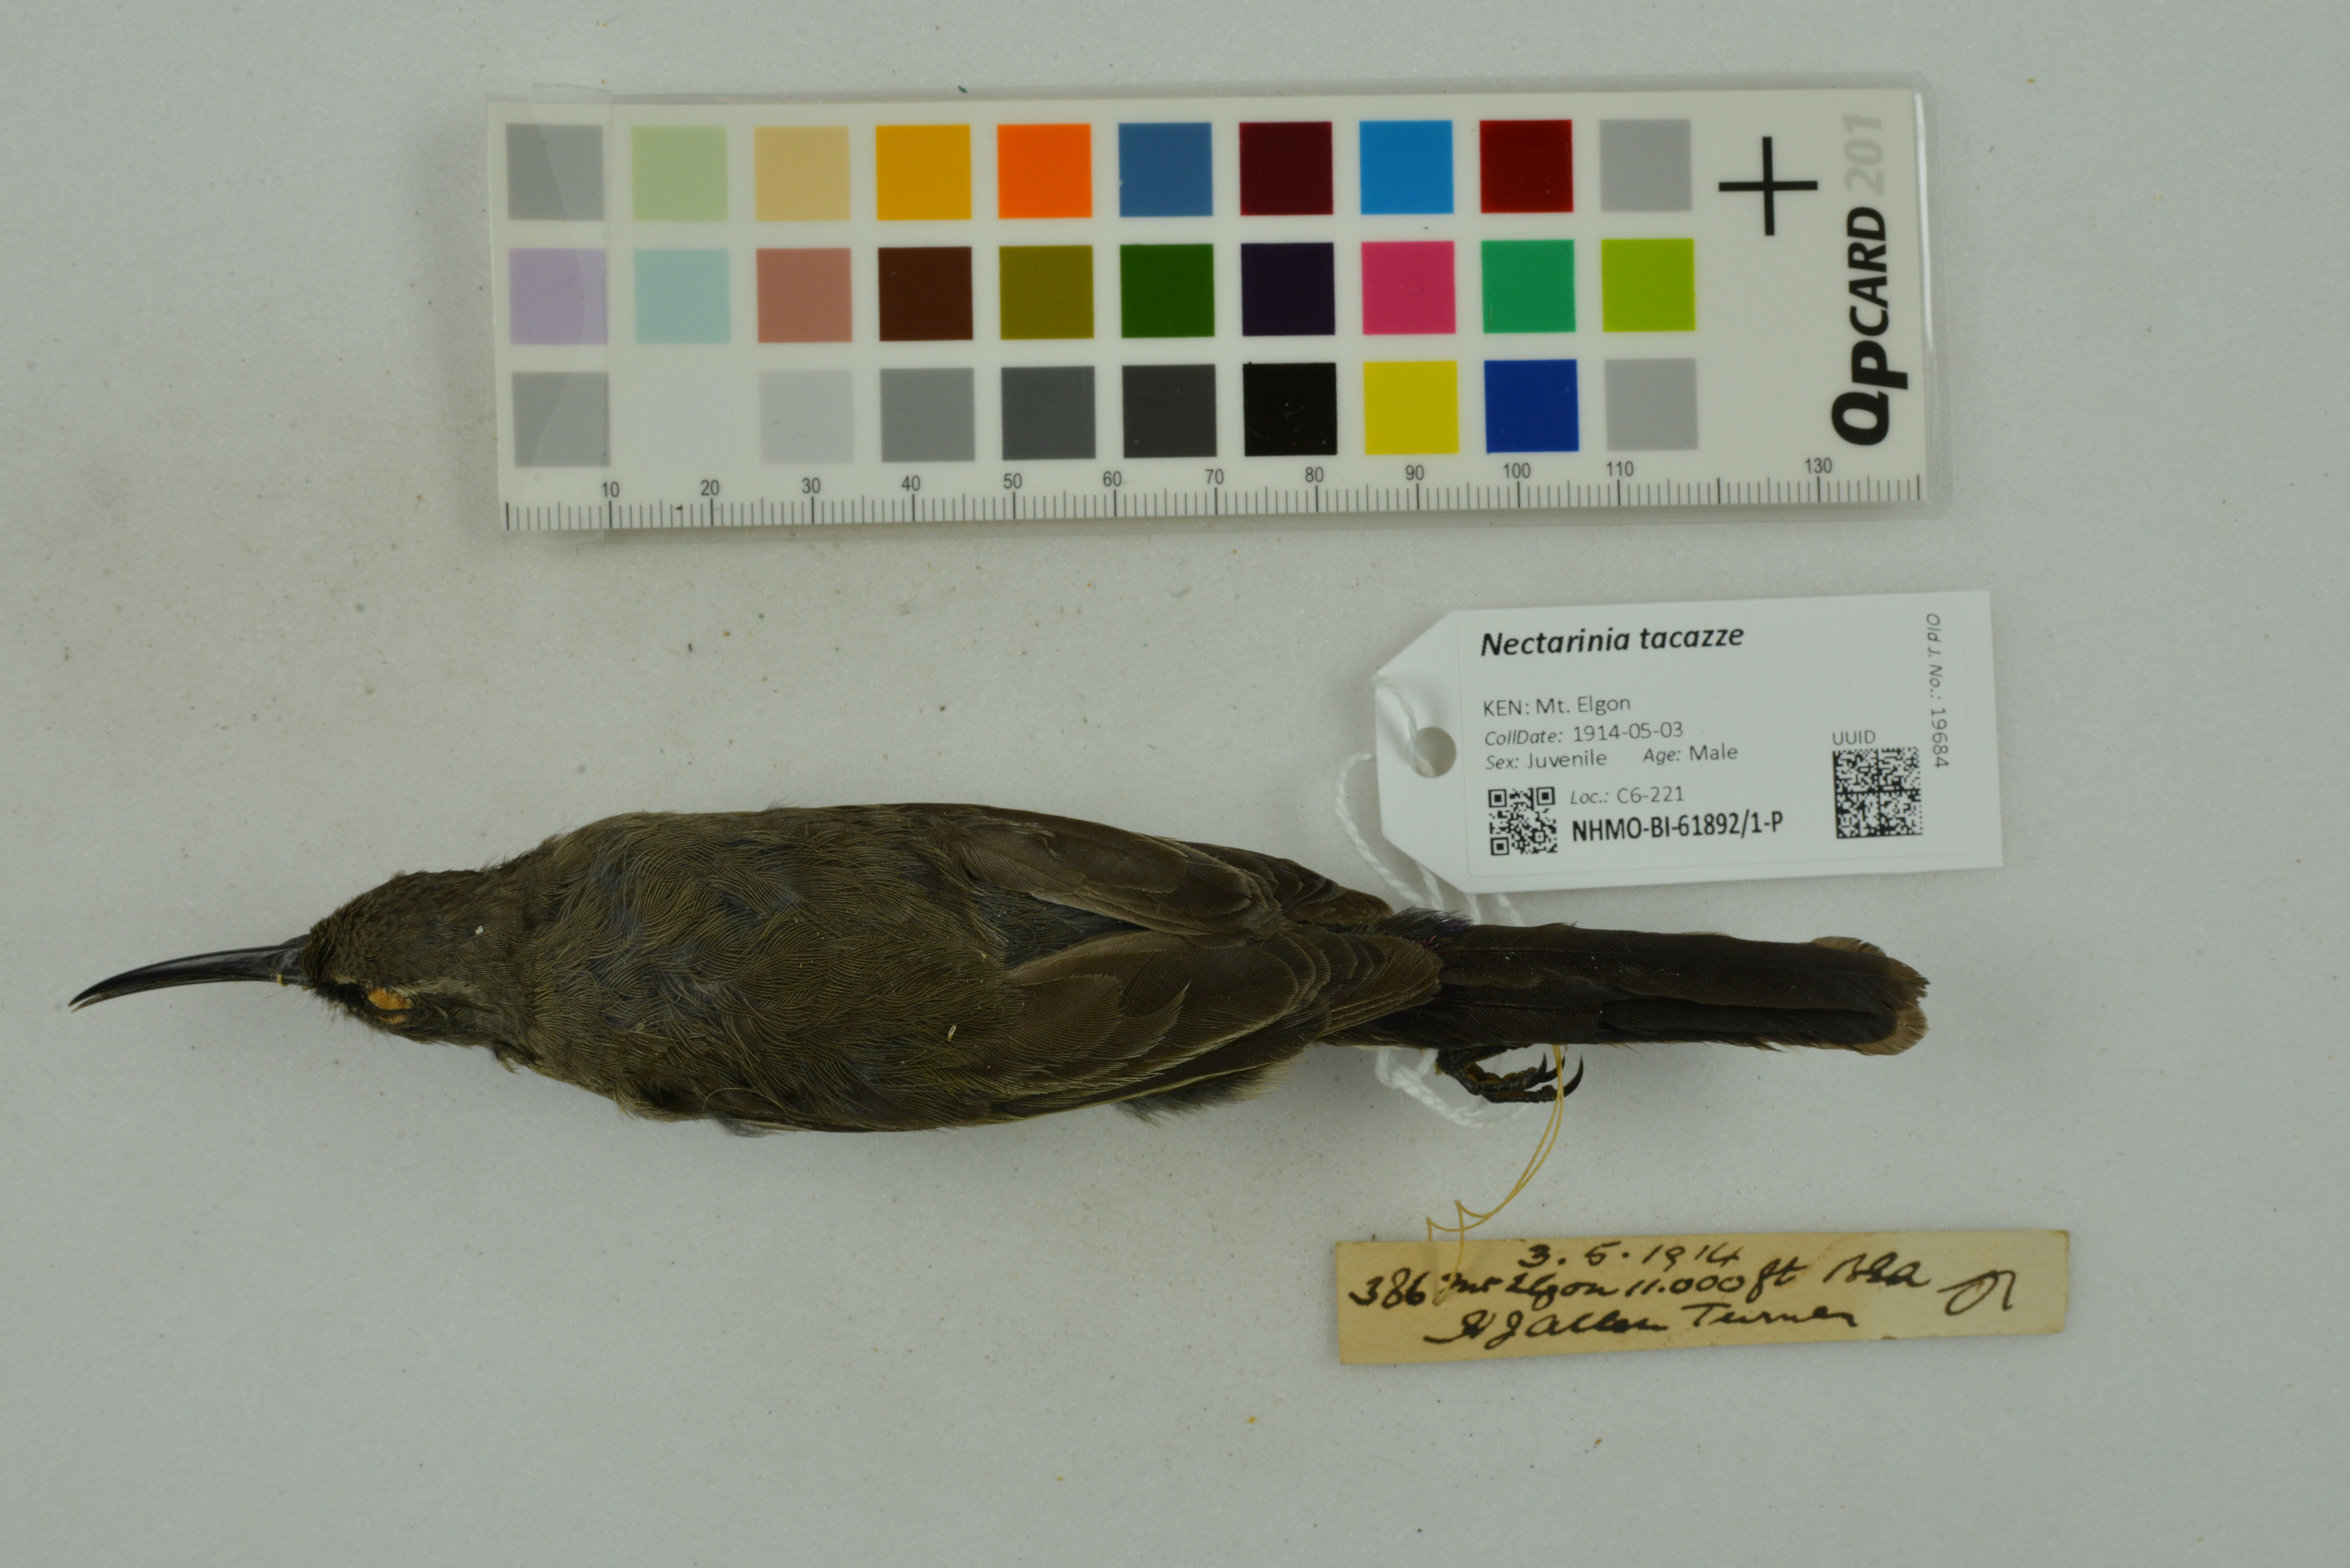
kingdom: Animalia
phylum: Chordata
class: Aves
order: Passeriformes
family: Nectariniidae
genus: Nectarinia
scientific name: Nectarinia tacazze
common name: Tacazze sunbird
